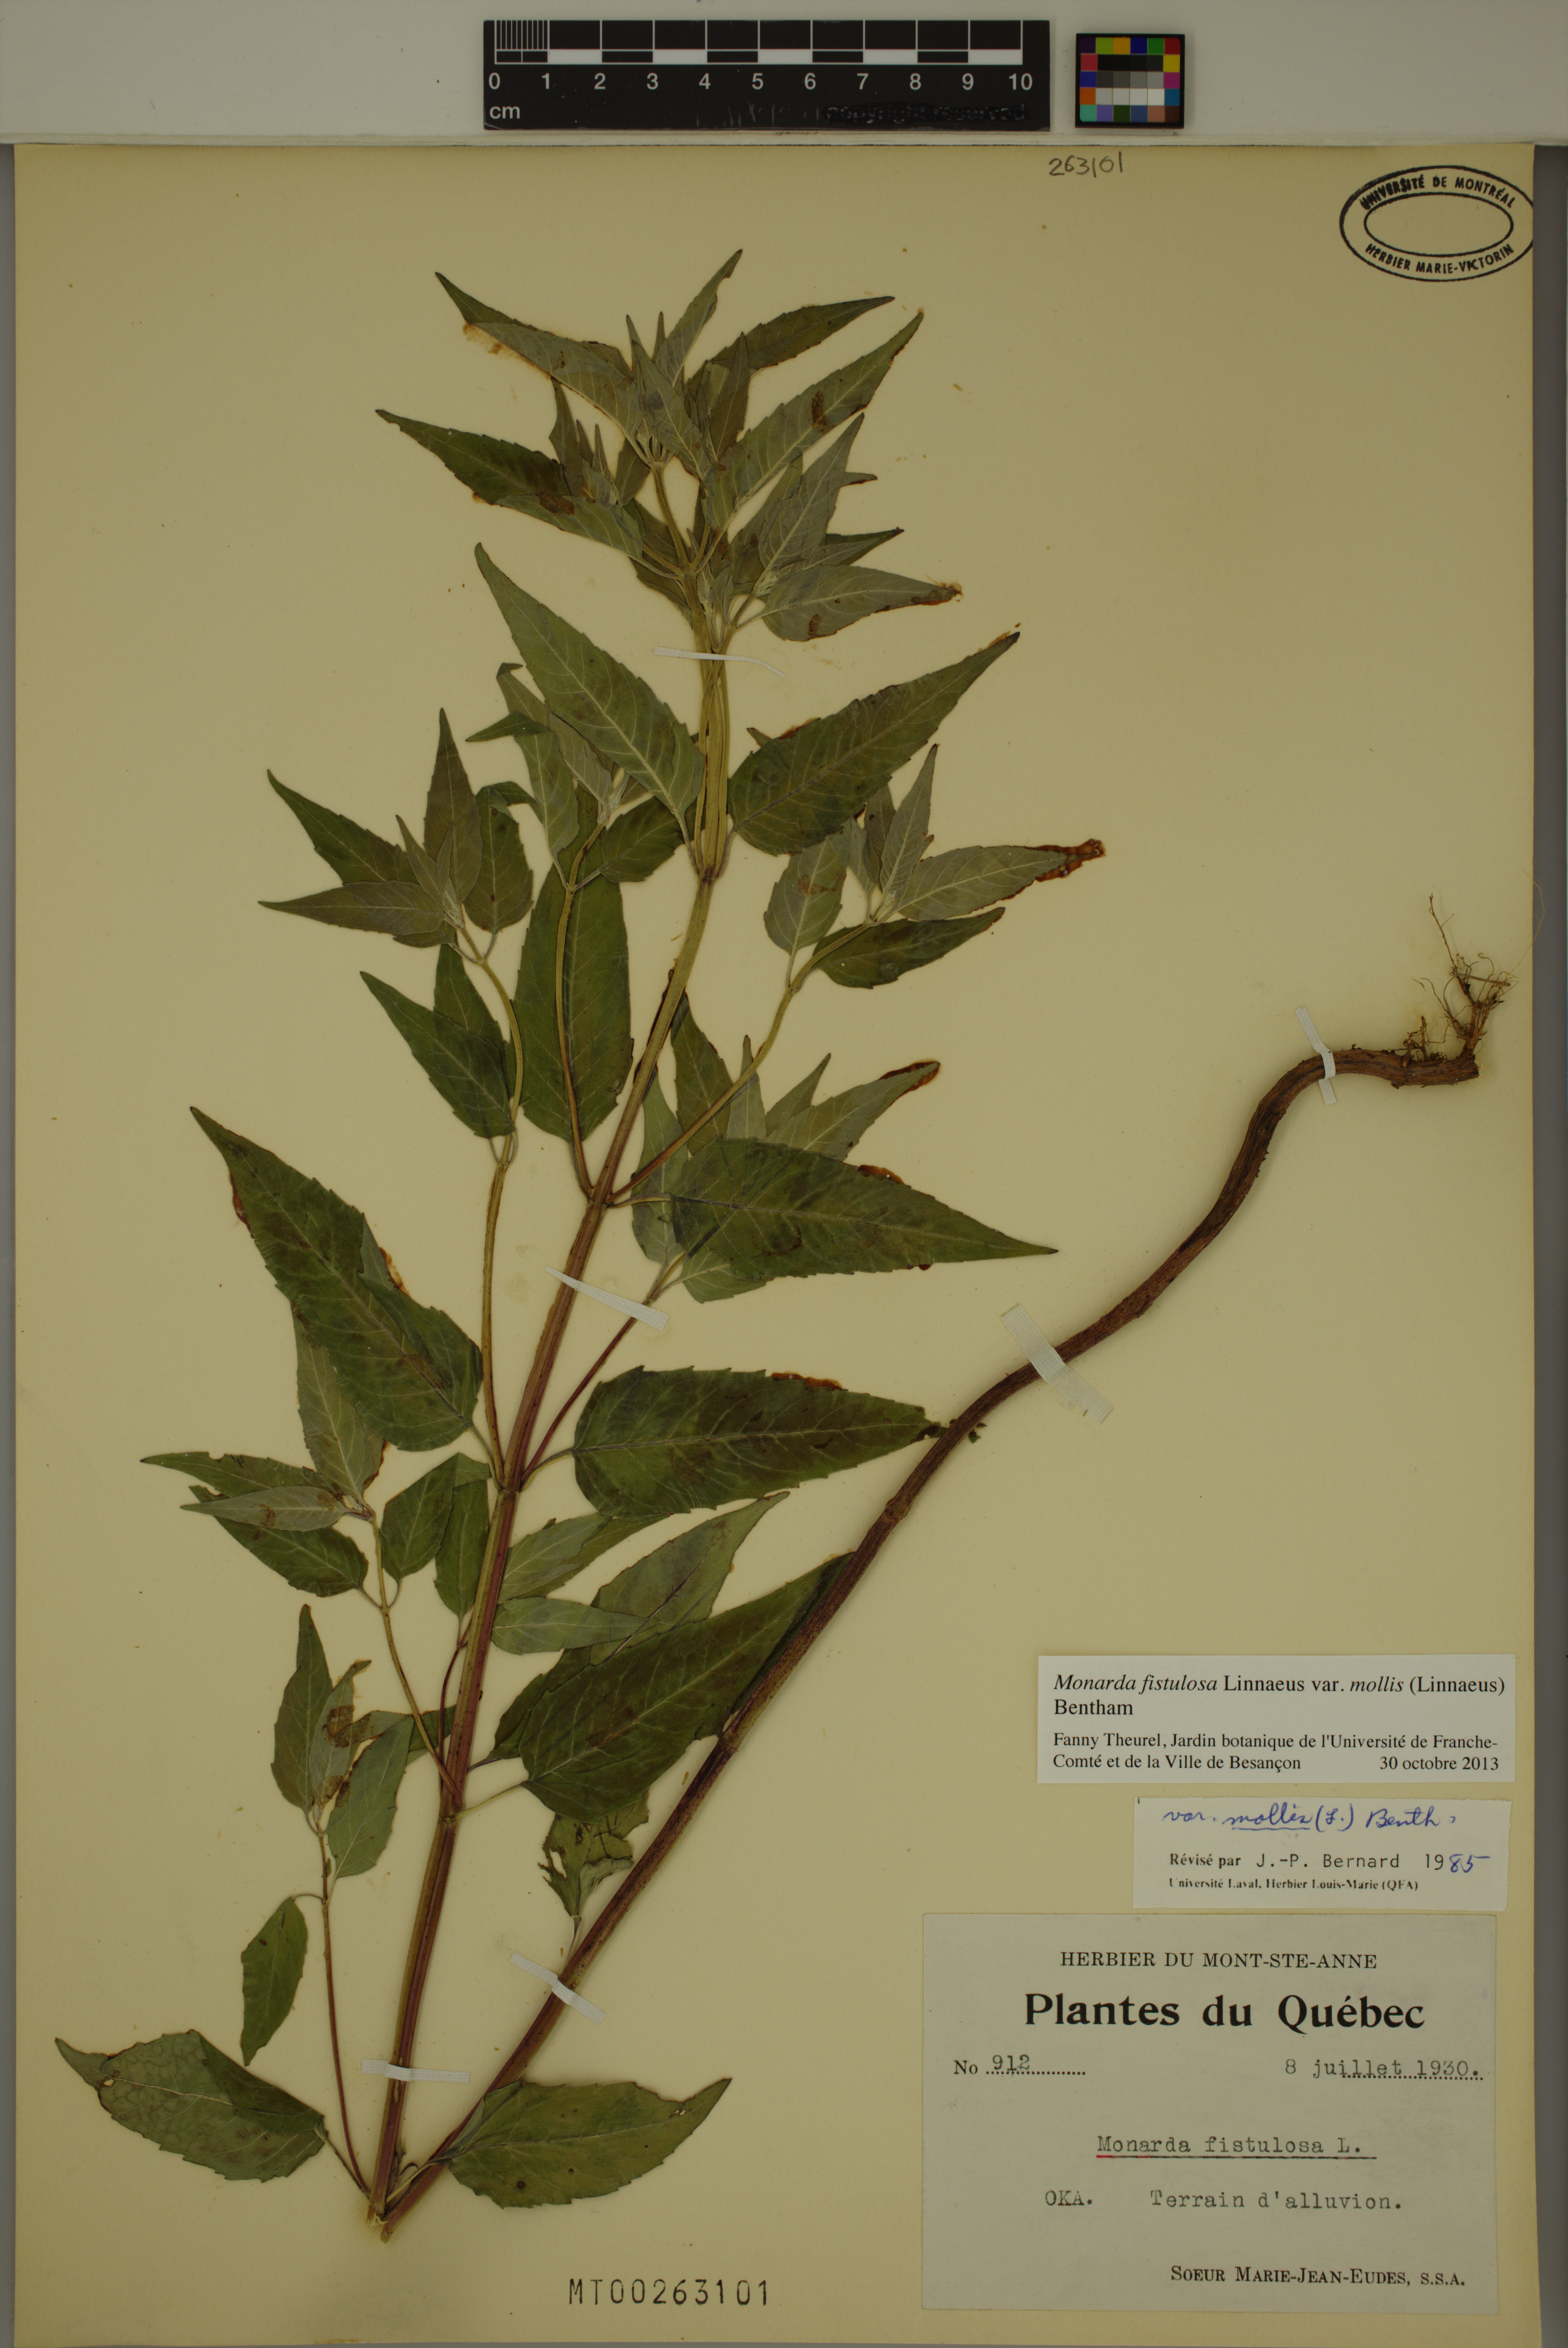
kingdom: Plantae
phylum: Tracheophyta
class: Magnoliopsida
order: Lamiales
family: Lamiaceae
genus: Monarda
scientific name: Monarda fistulosa
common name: Purple beebalm
